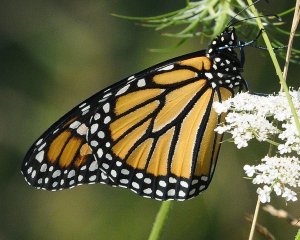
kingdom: Animalia
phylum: Arthropoda
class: Insecta
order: Lepidoptera
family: Nymphalidae
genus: Danaus
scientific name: Danaus plexippus
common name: Monarch
